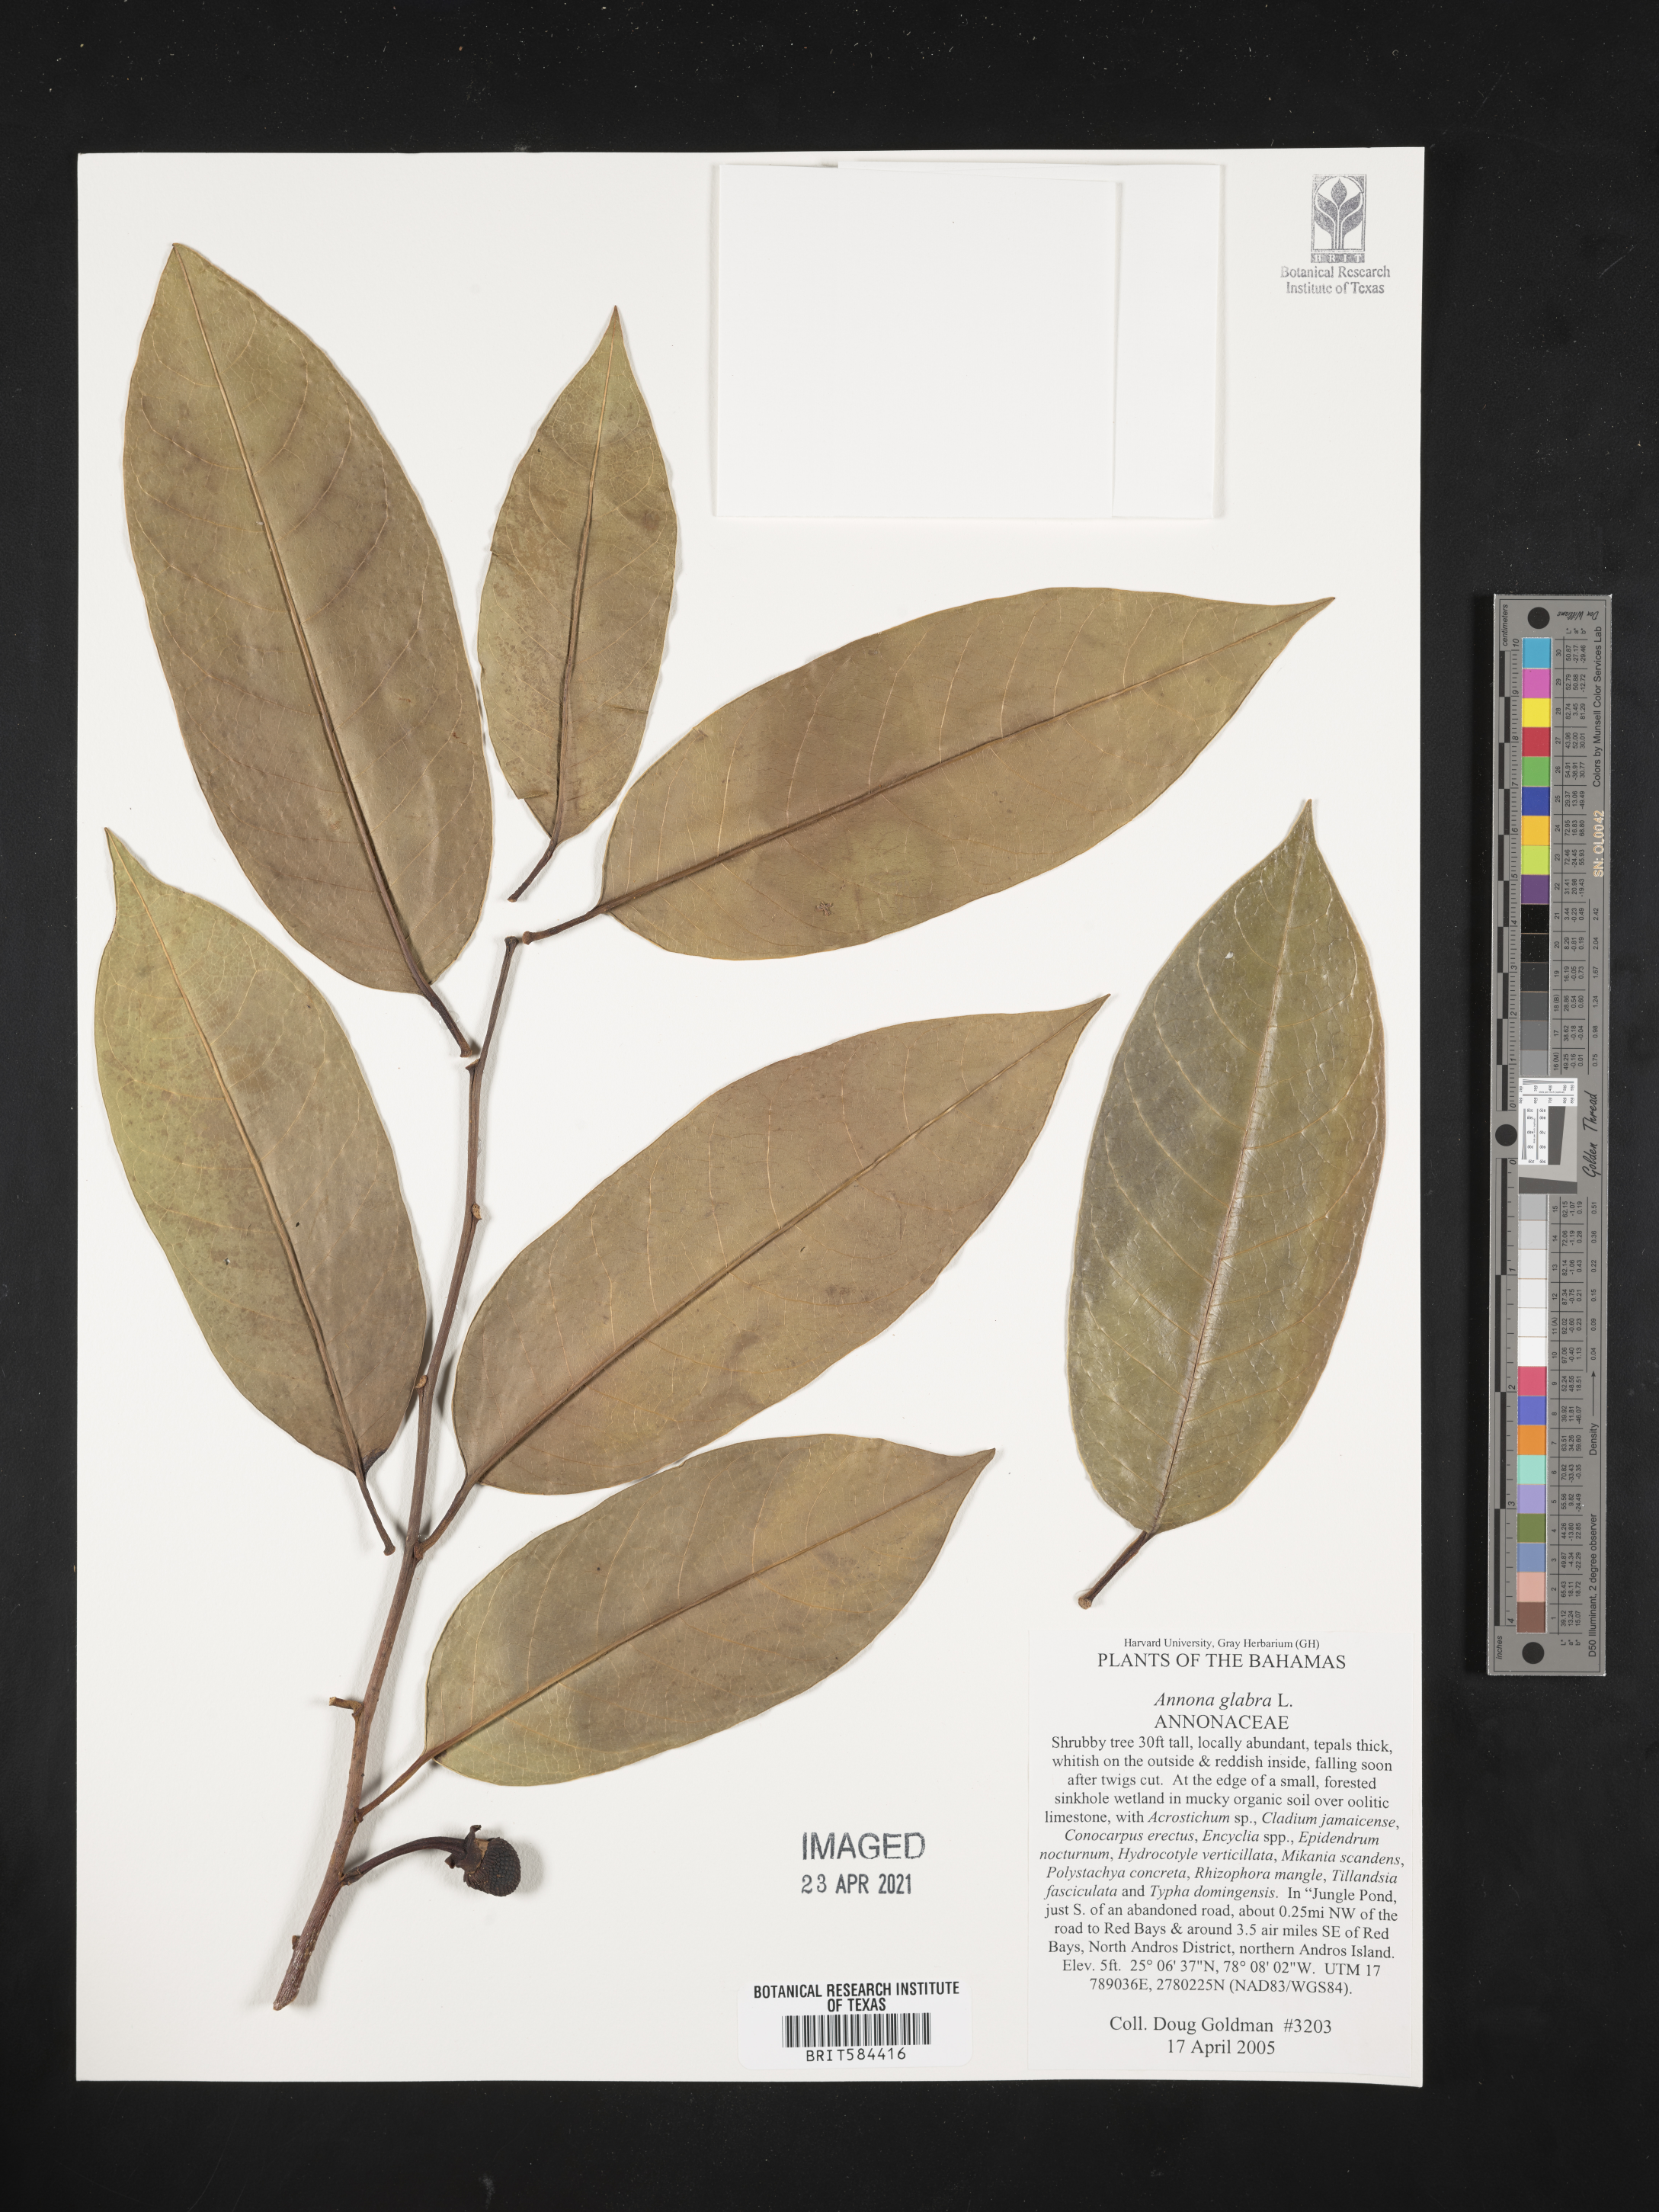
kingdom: Plantae
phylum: Tracheophyta
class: Magnoliopsida
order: Magnoliales
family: Annonaceae
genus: Annona
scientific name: Annona glabra
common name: Monkey apple
